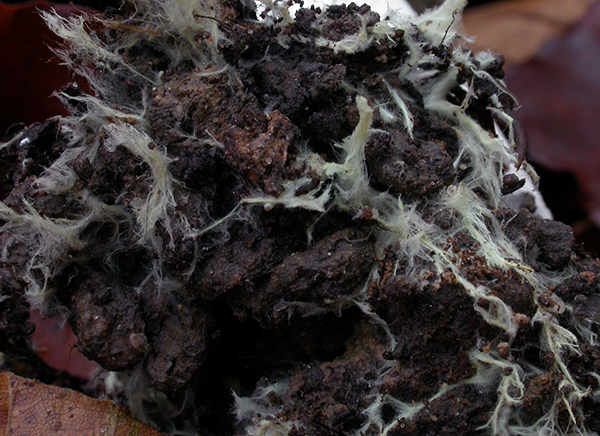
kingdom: Fungi
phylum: Basidiomycota
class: Agaricomycetes
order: Agaricales
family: Tricholomataceae
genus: Tricholoma
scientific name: Tricholoma orirubens
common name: rødbladet ridderhat
